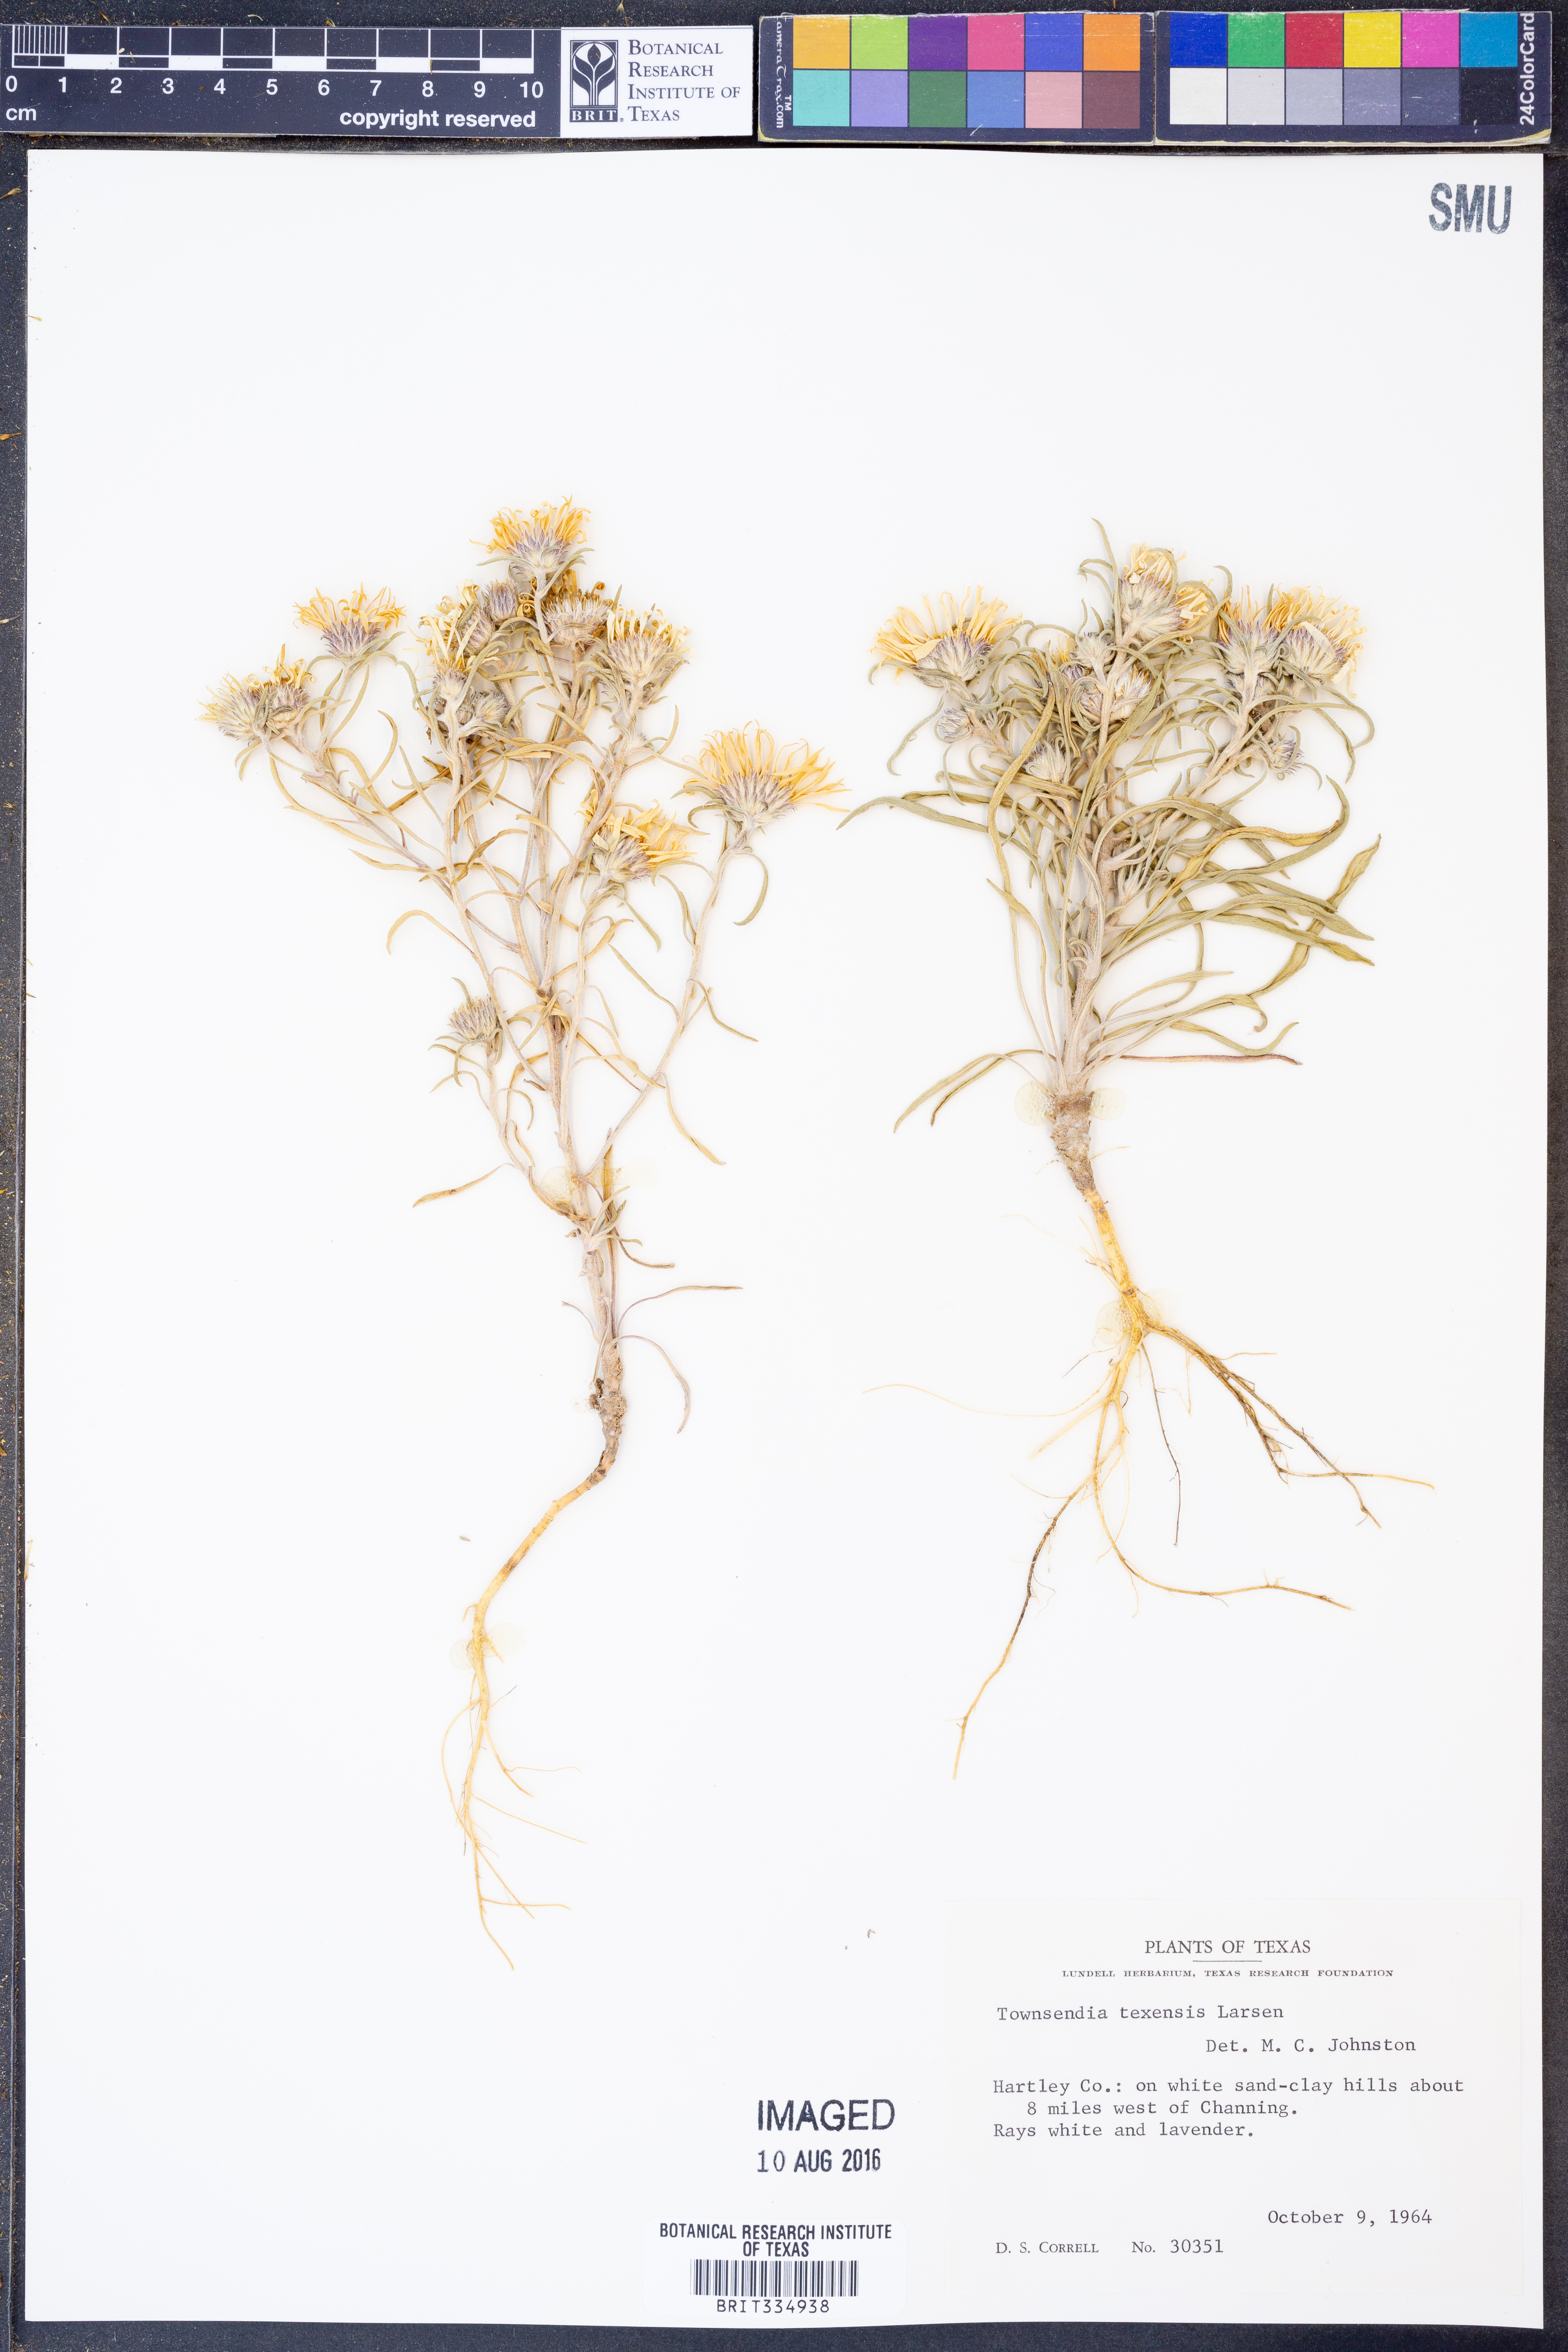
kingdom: Plantae
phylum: Tracheophyta
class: Magnoliopsida
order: Asterales
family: Asteraceae
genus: Townsendia
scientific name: Townsendia texensis
